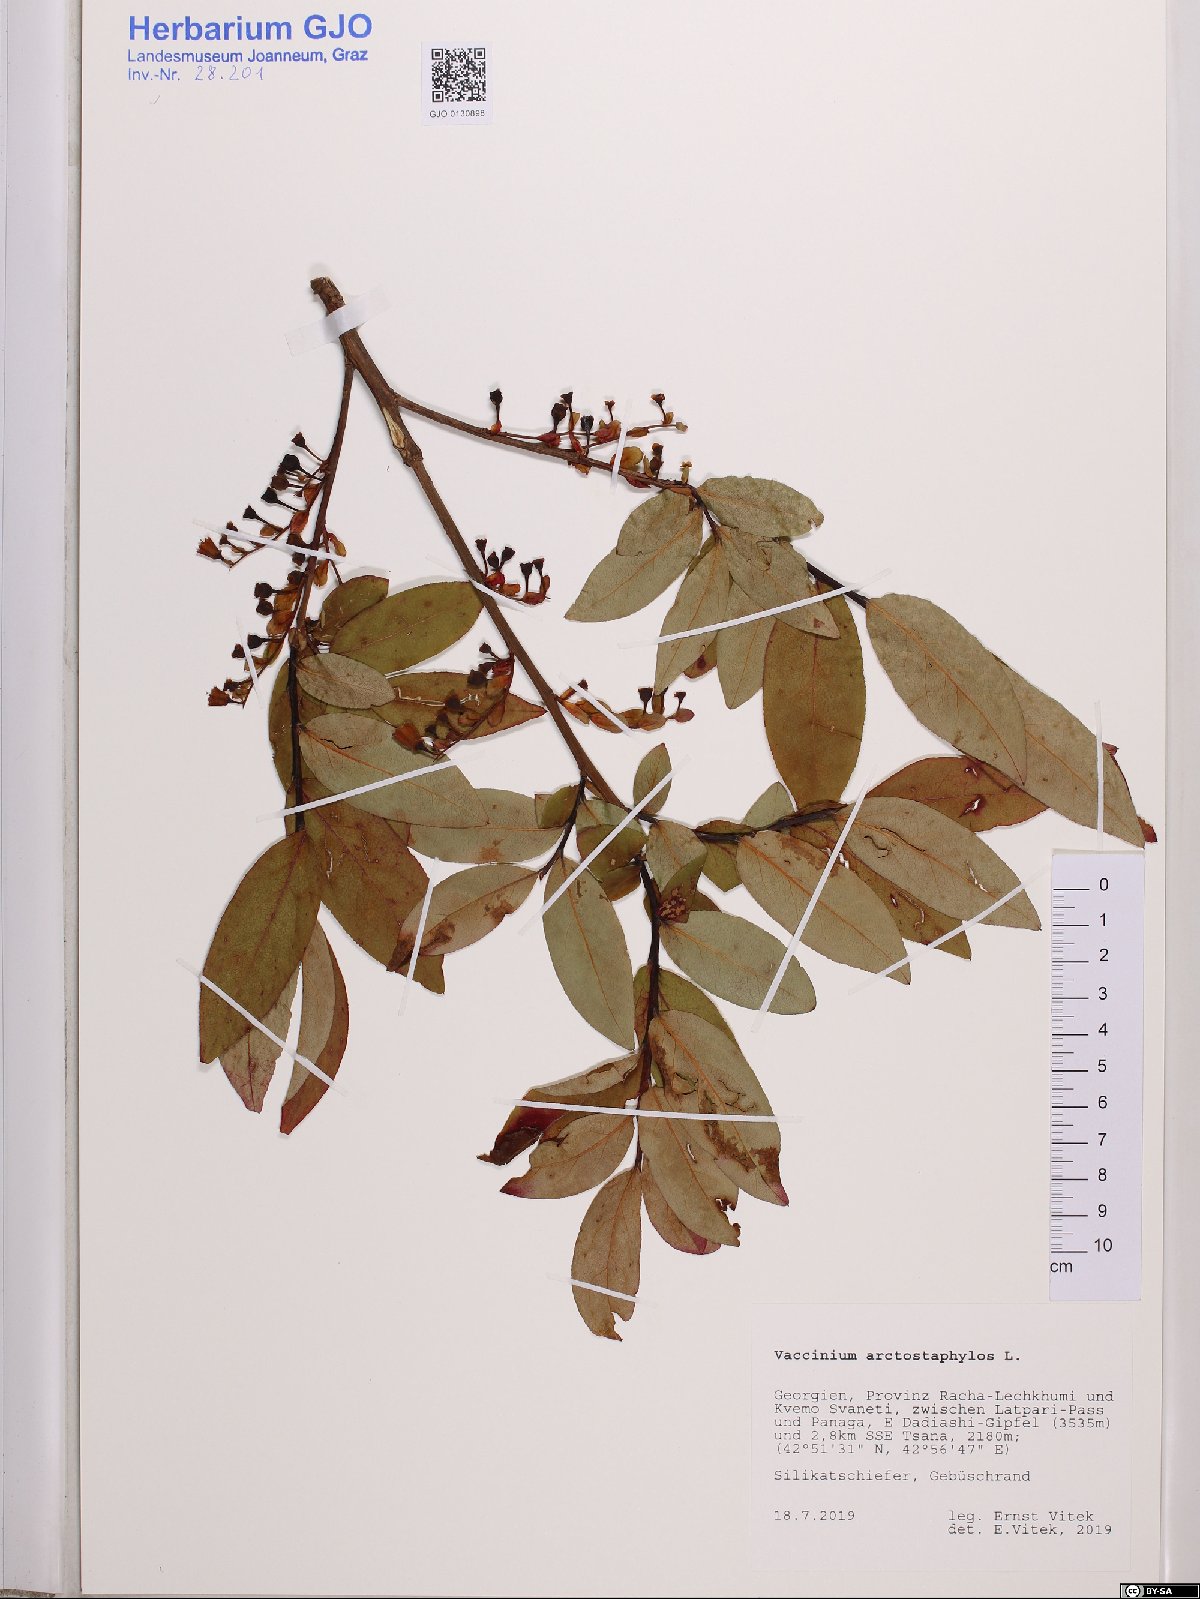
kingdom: Plantae
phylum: Tracheophyta
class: Magnoliopsida
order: Ericales
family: Ericaceae
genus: Vaccinium
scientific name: Vaccinium arctostaphylos
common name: Caucasian whortleberry
